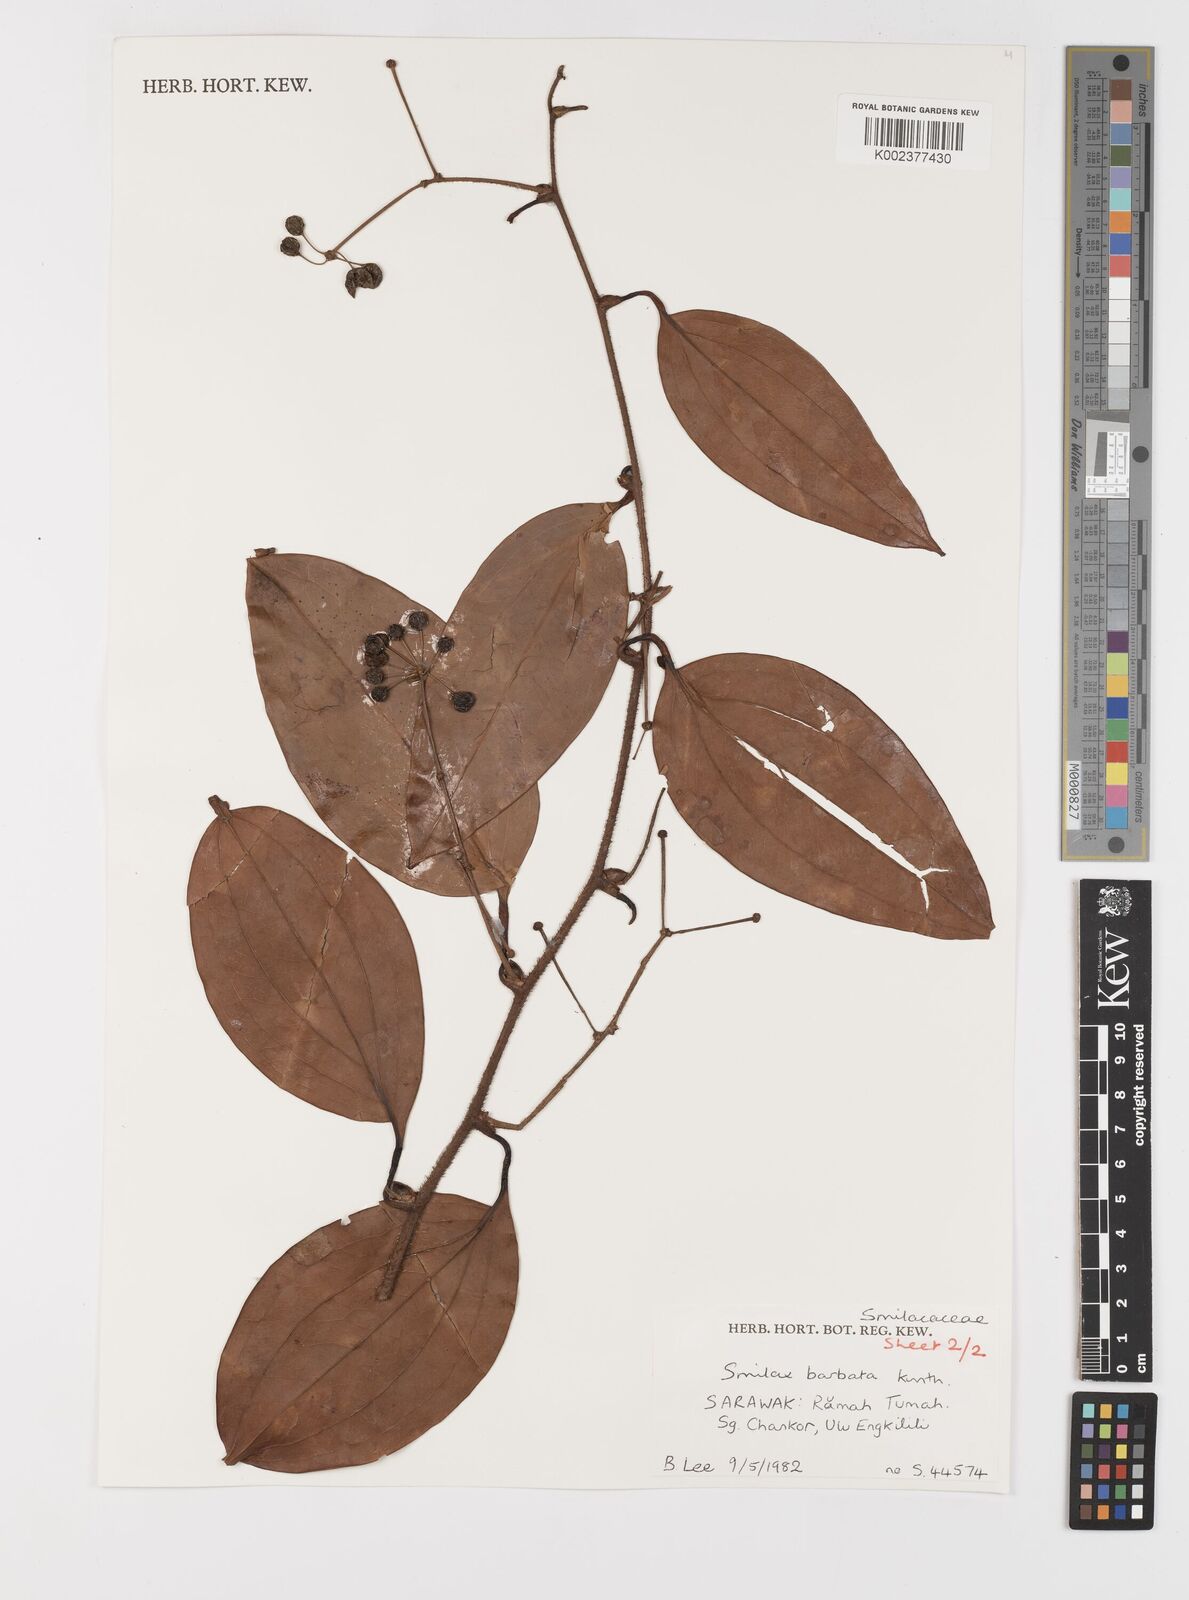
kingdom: Plantae
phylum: Tracheophyta
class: Liliopsida
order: Liliales
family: Smilacaceae
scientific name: Smilacaceae
